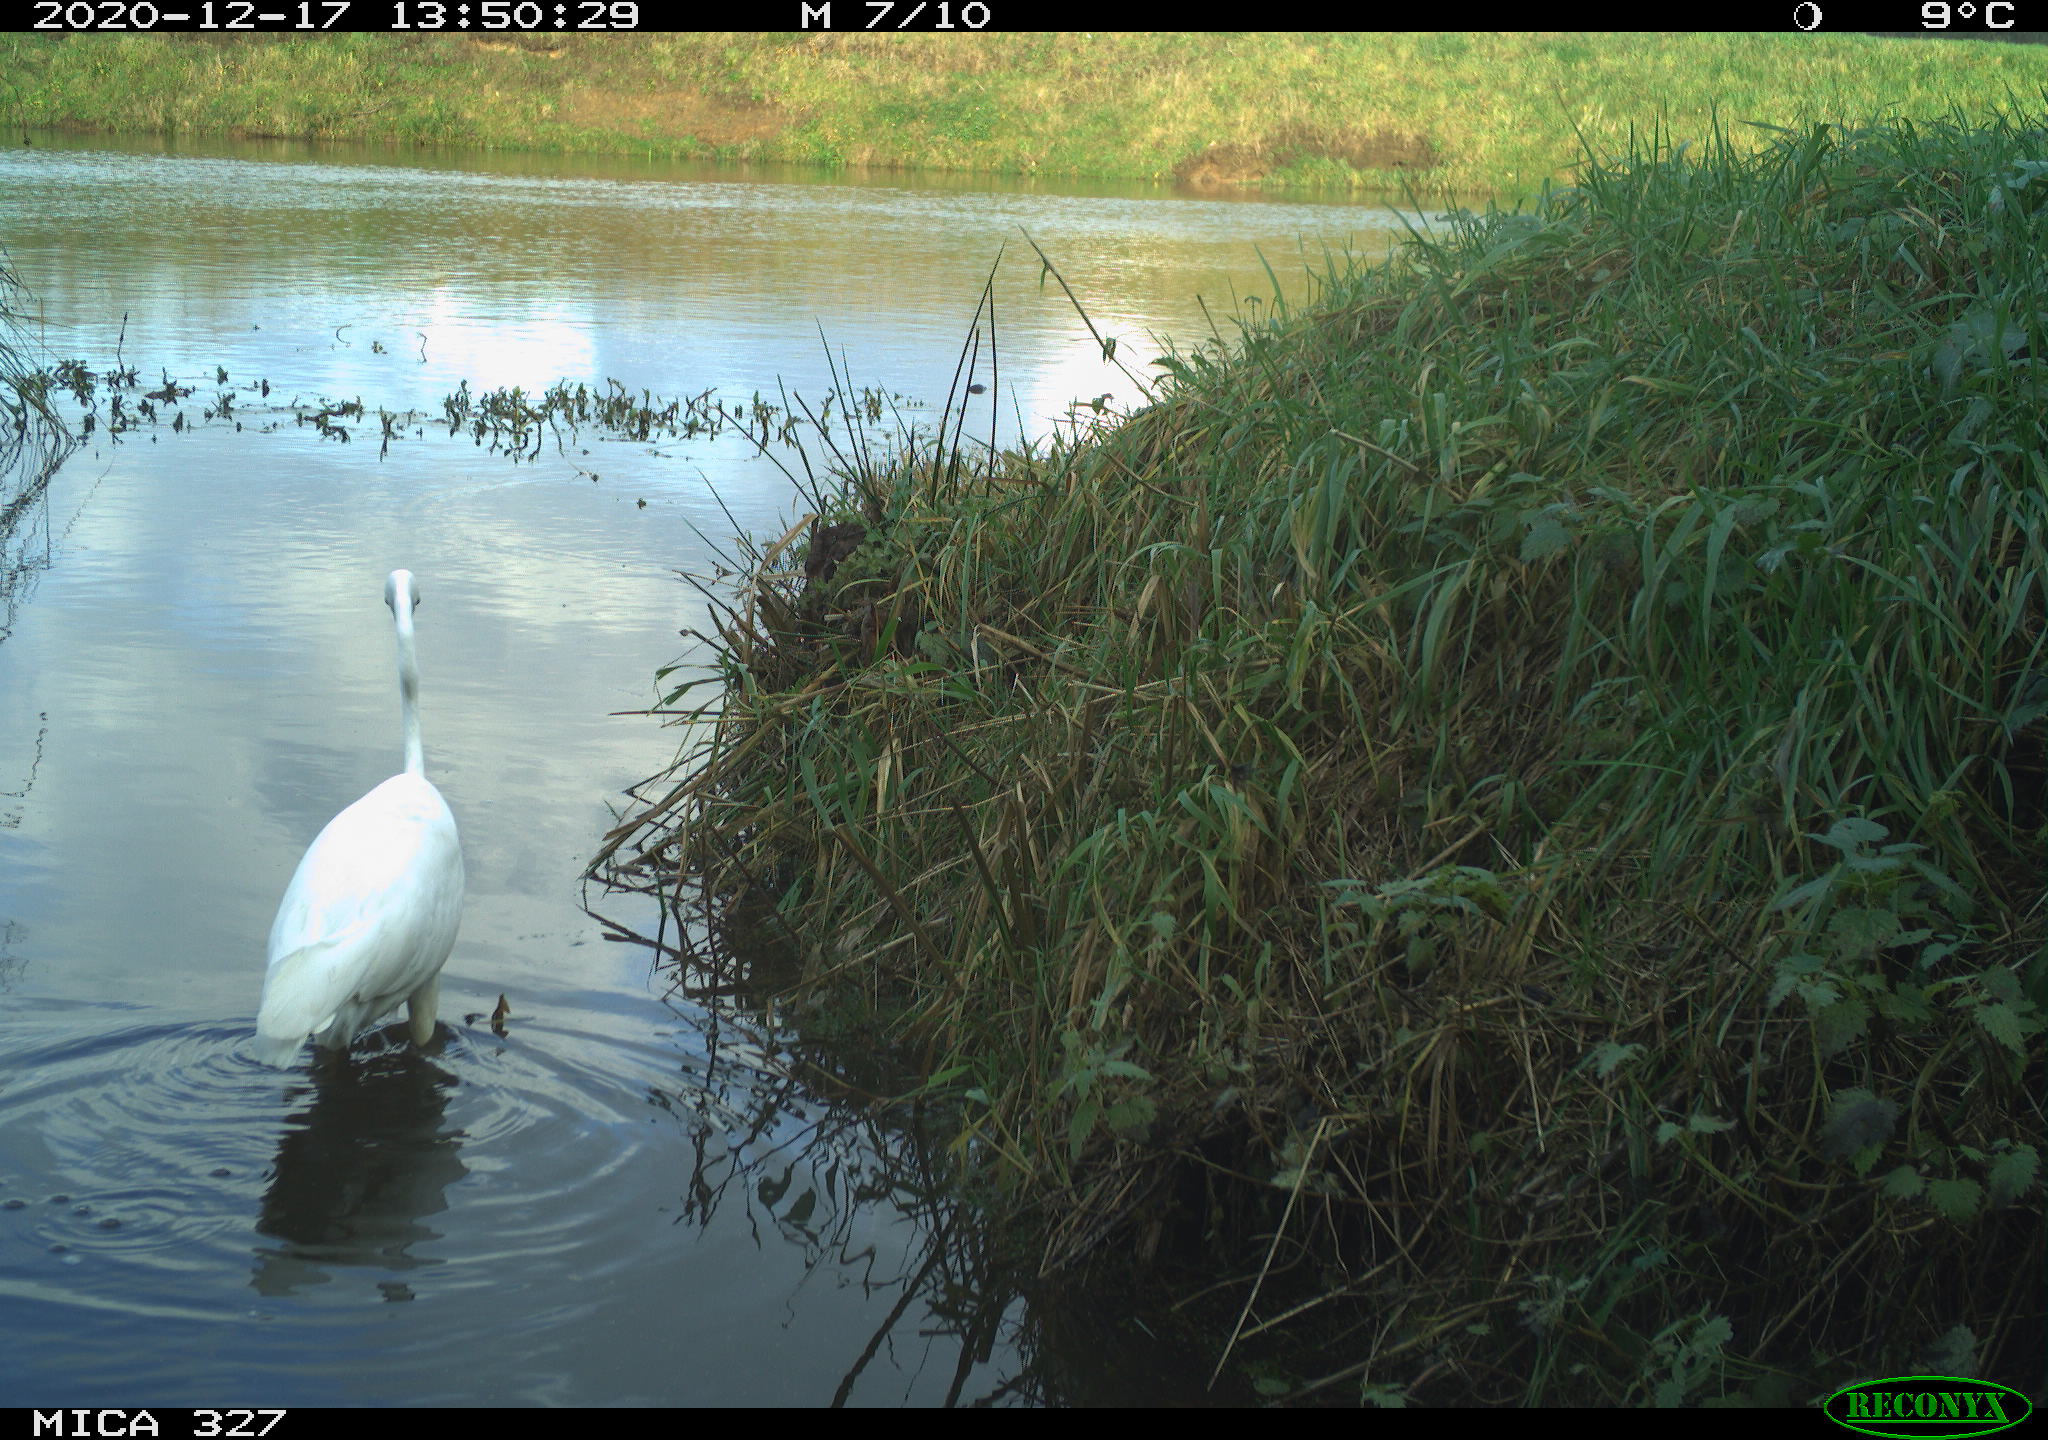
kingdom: Animalia
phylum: Chordata
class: Aves
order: Pelecaniformes
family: Ardeidae
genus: Ardea
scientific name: Ardea alba
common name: Great egret
